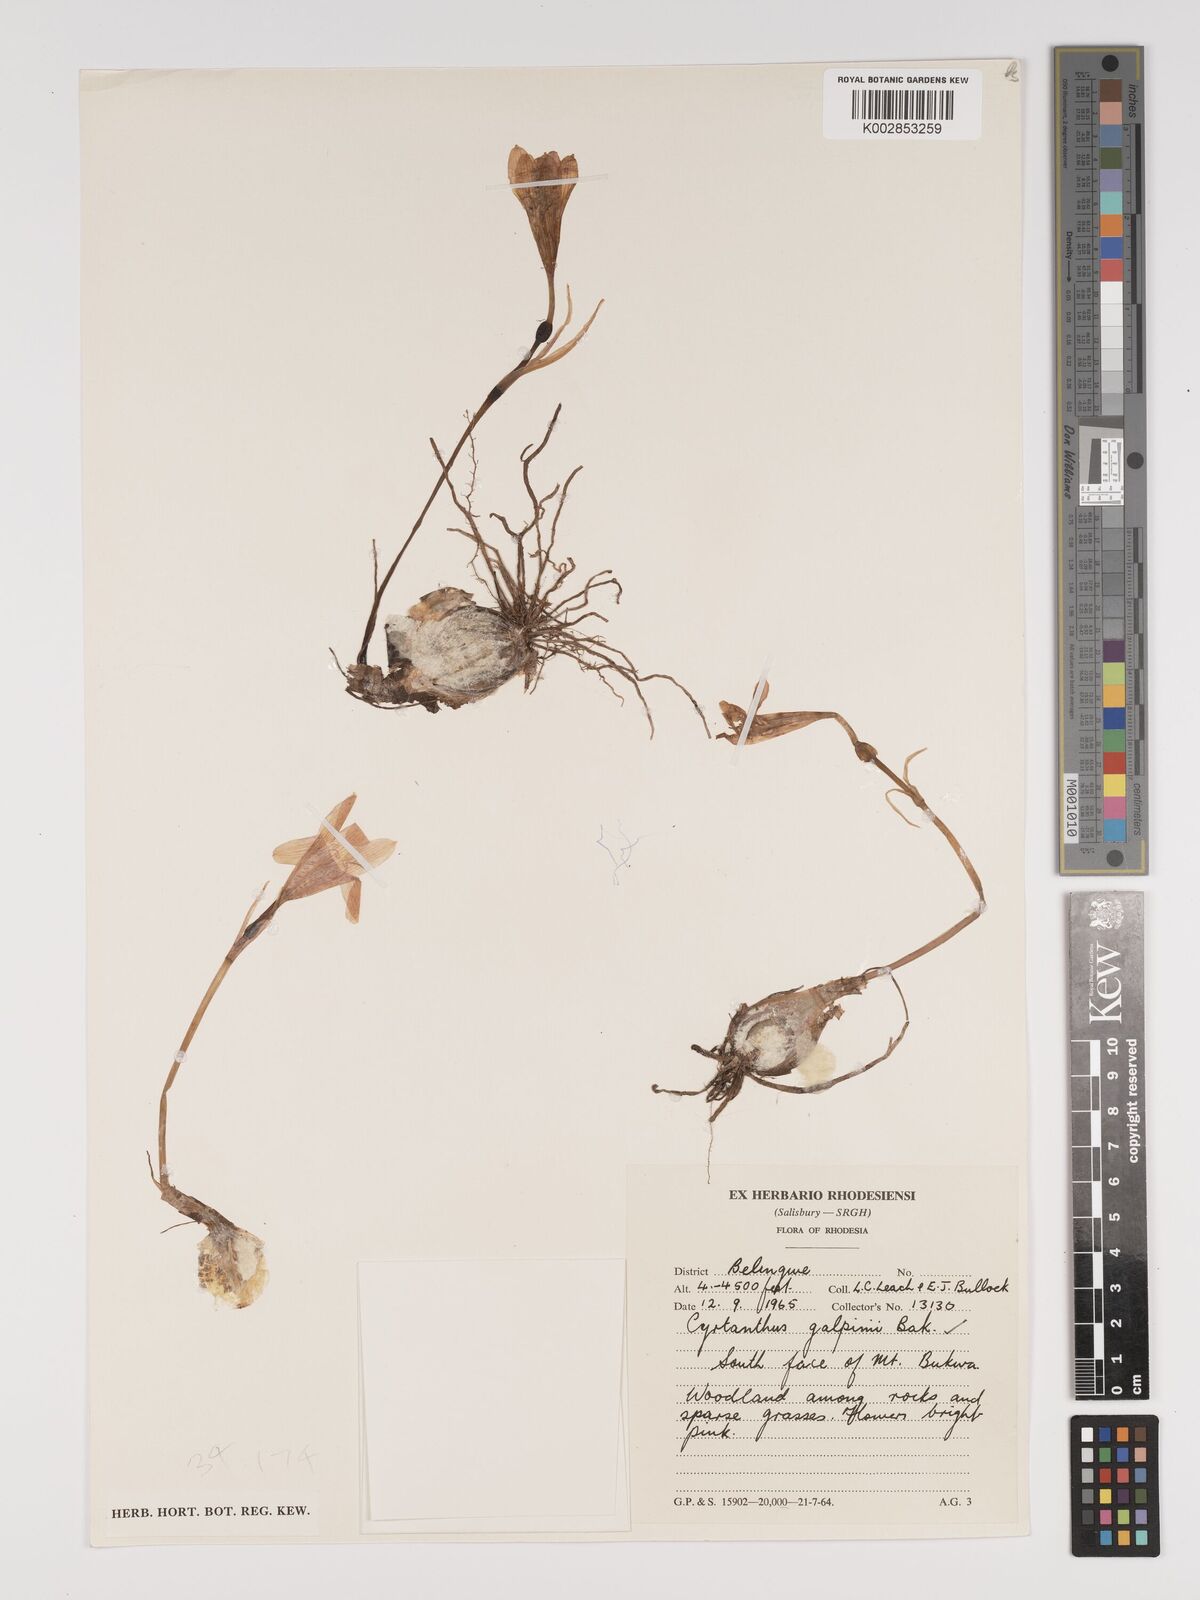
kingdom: Plantae
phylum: Tracheophyta
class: Liliopsida
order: Asparagales
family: Amaryllidaceae
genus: Cyrtanthus
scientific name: Cyrtanthus galpinii
